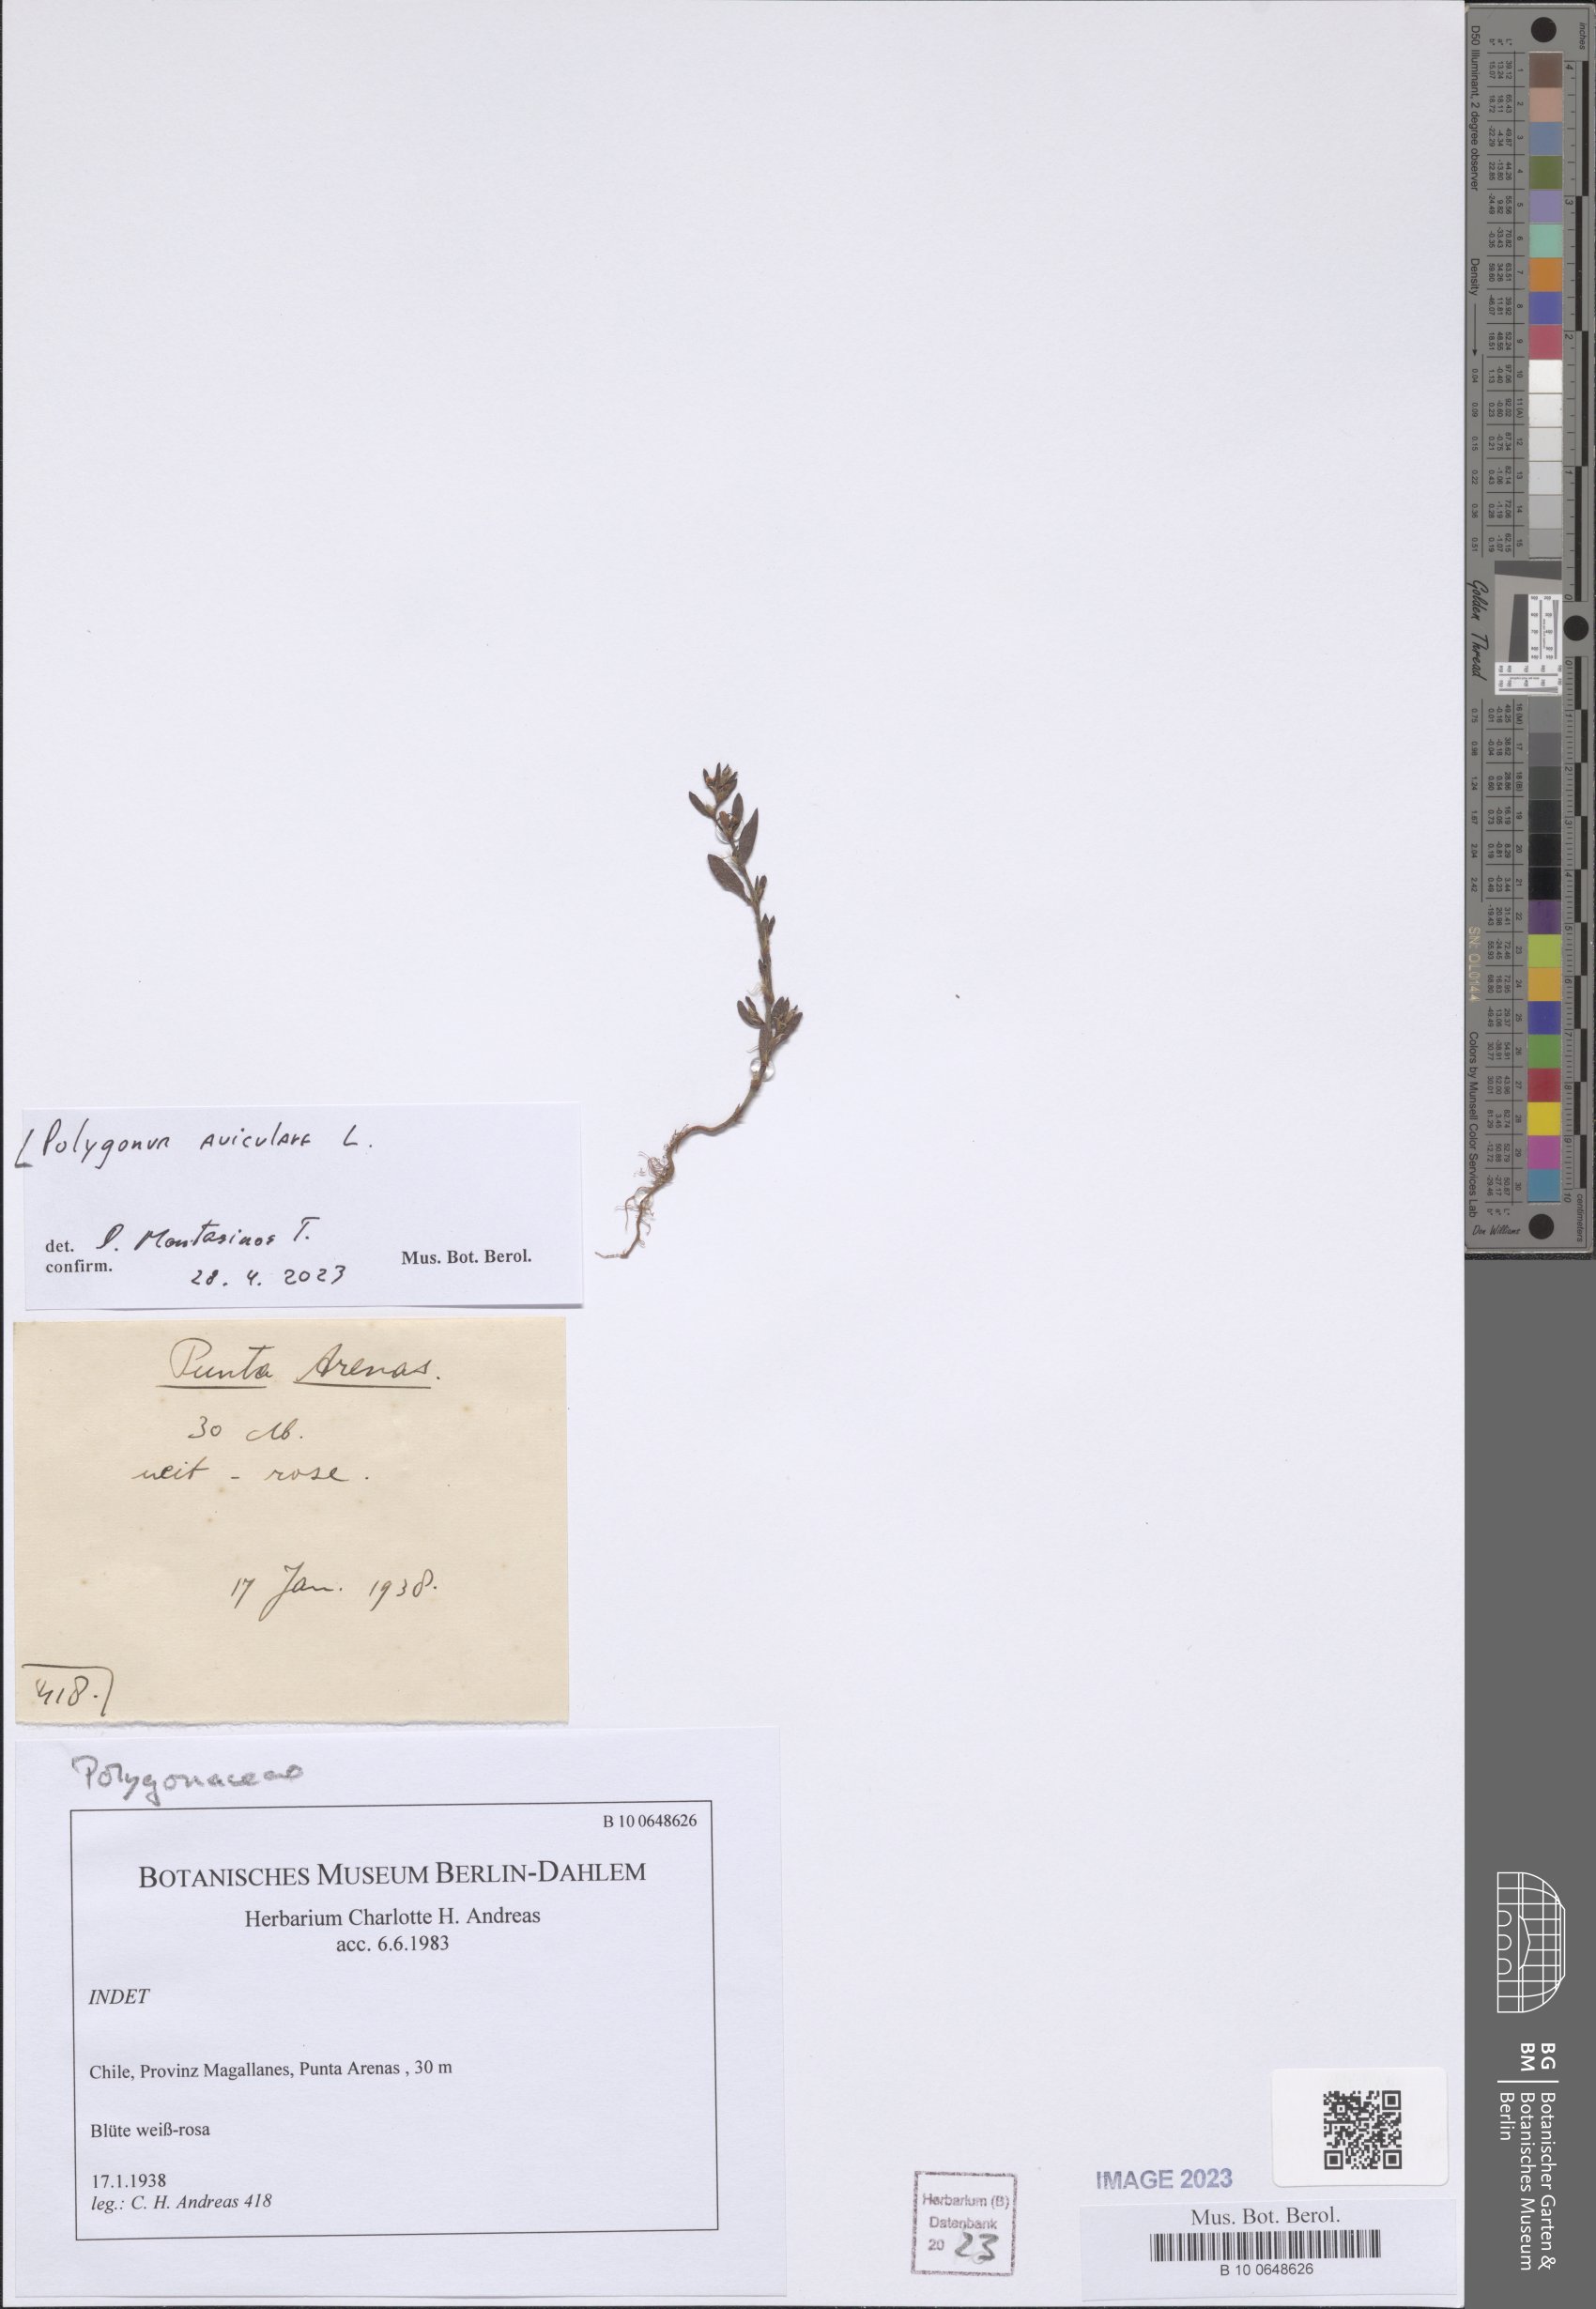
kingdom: Plantae
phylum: Tracheophyta
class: Magnoliopsida
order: Caryophyllales
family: Polygonaceae
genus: Polygonum
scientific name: Polygonum aviculare
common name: Prostrate knotweed
